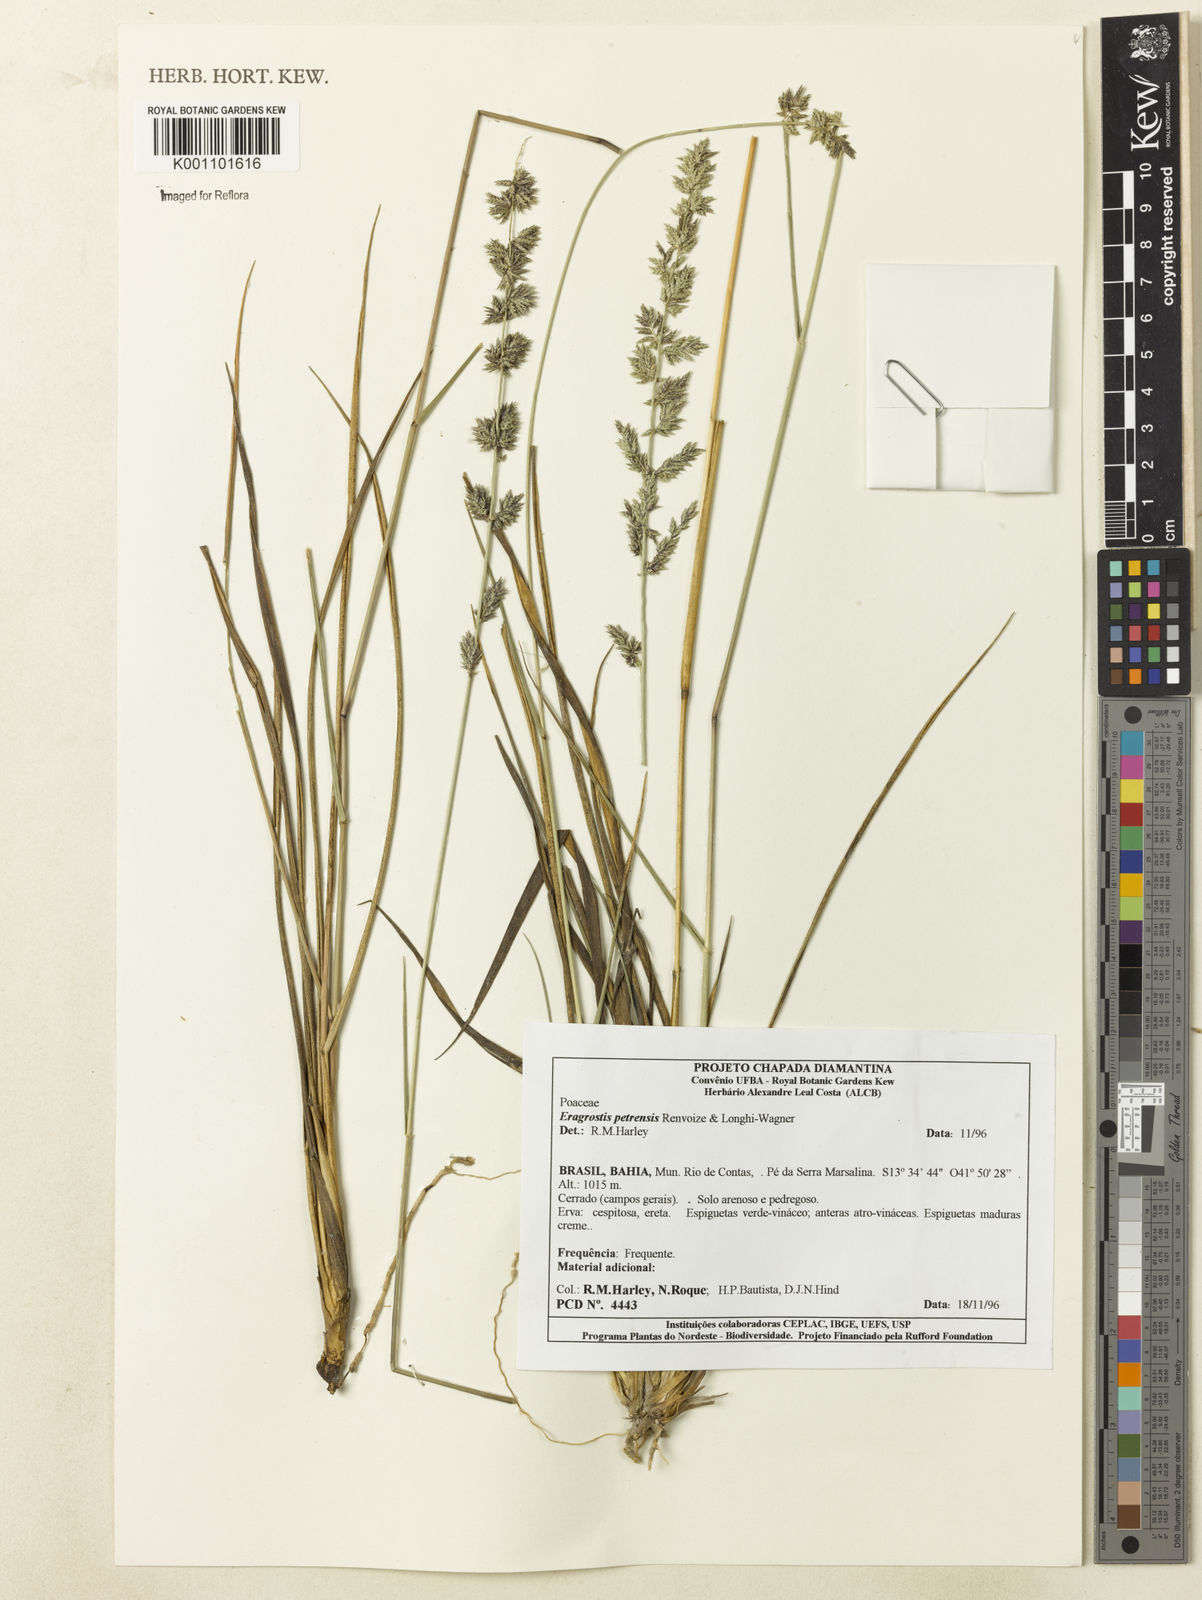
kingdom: Plantae
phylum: Tracheophyta
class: Liliopsida
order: Poales
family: Poaceae
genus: Eragrostis
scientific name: Eragrostis petrensis
